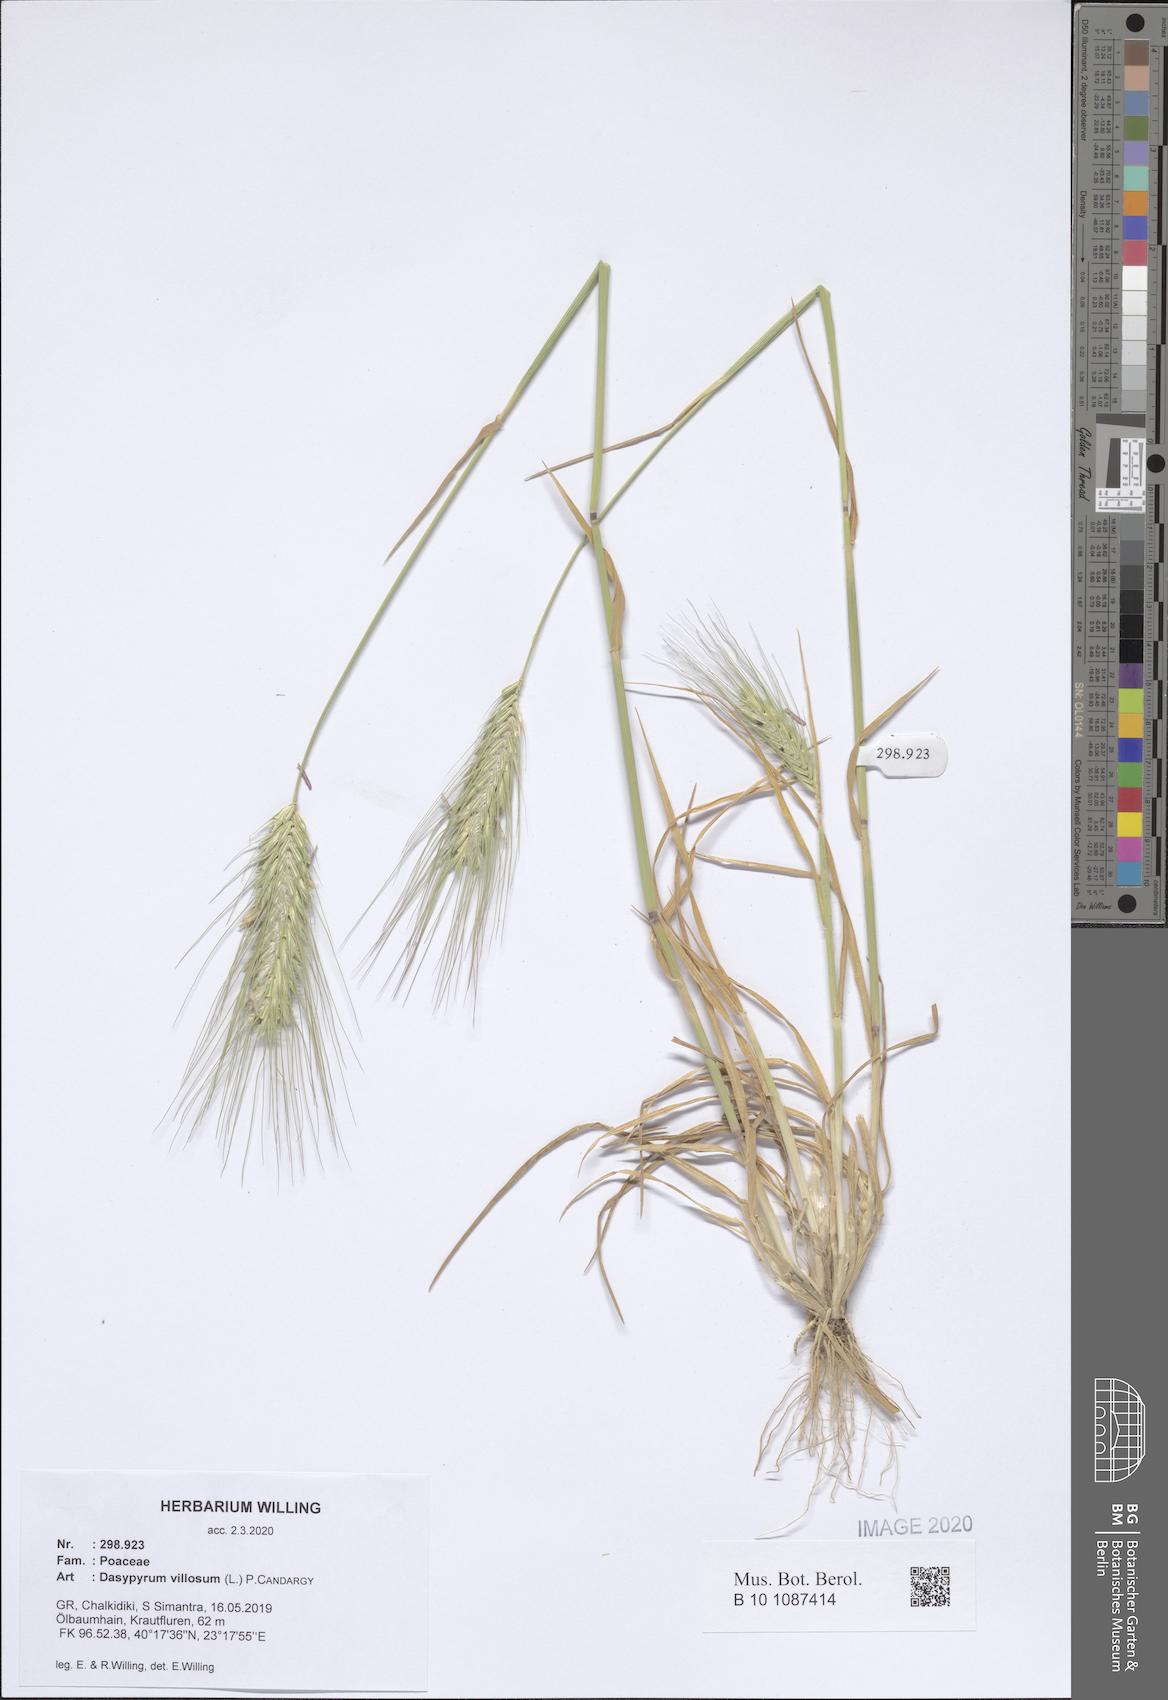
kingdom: Plantae
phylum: Tracheophyta
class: Liliopsida
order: Poales
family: Poaceae
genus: Dasypyrum
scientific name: Dasypyrum villosum
